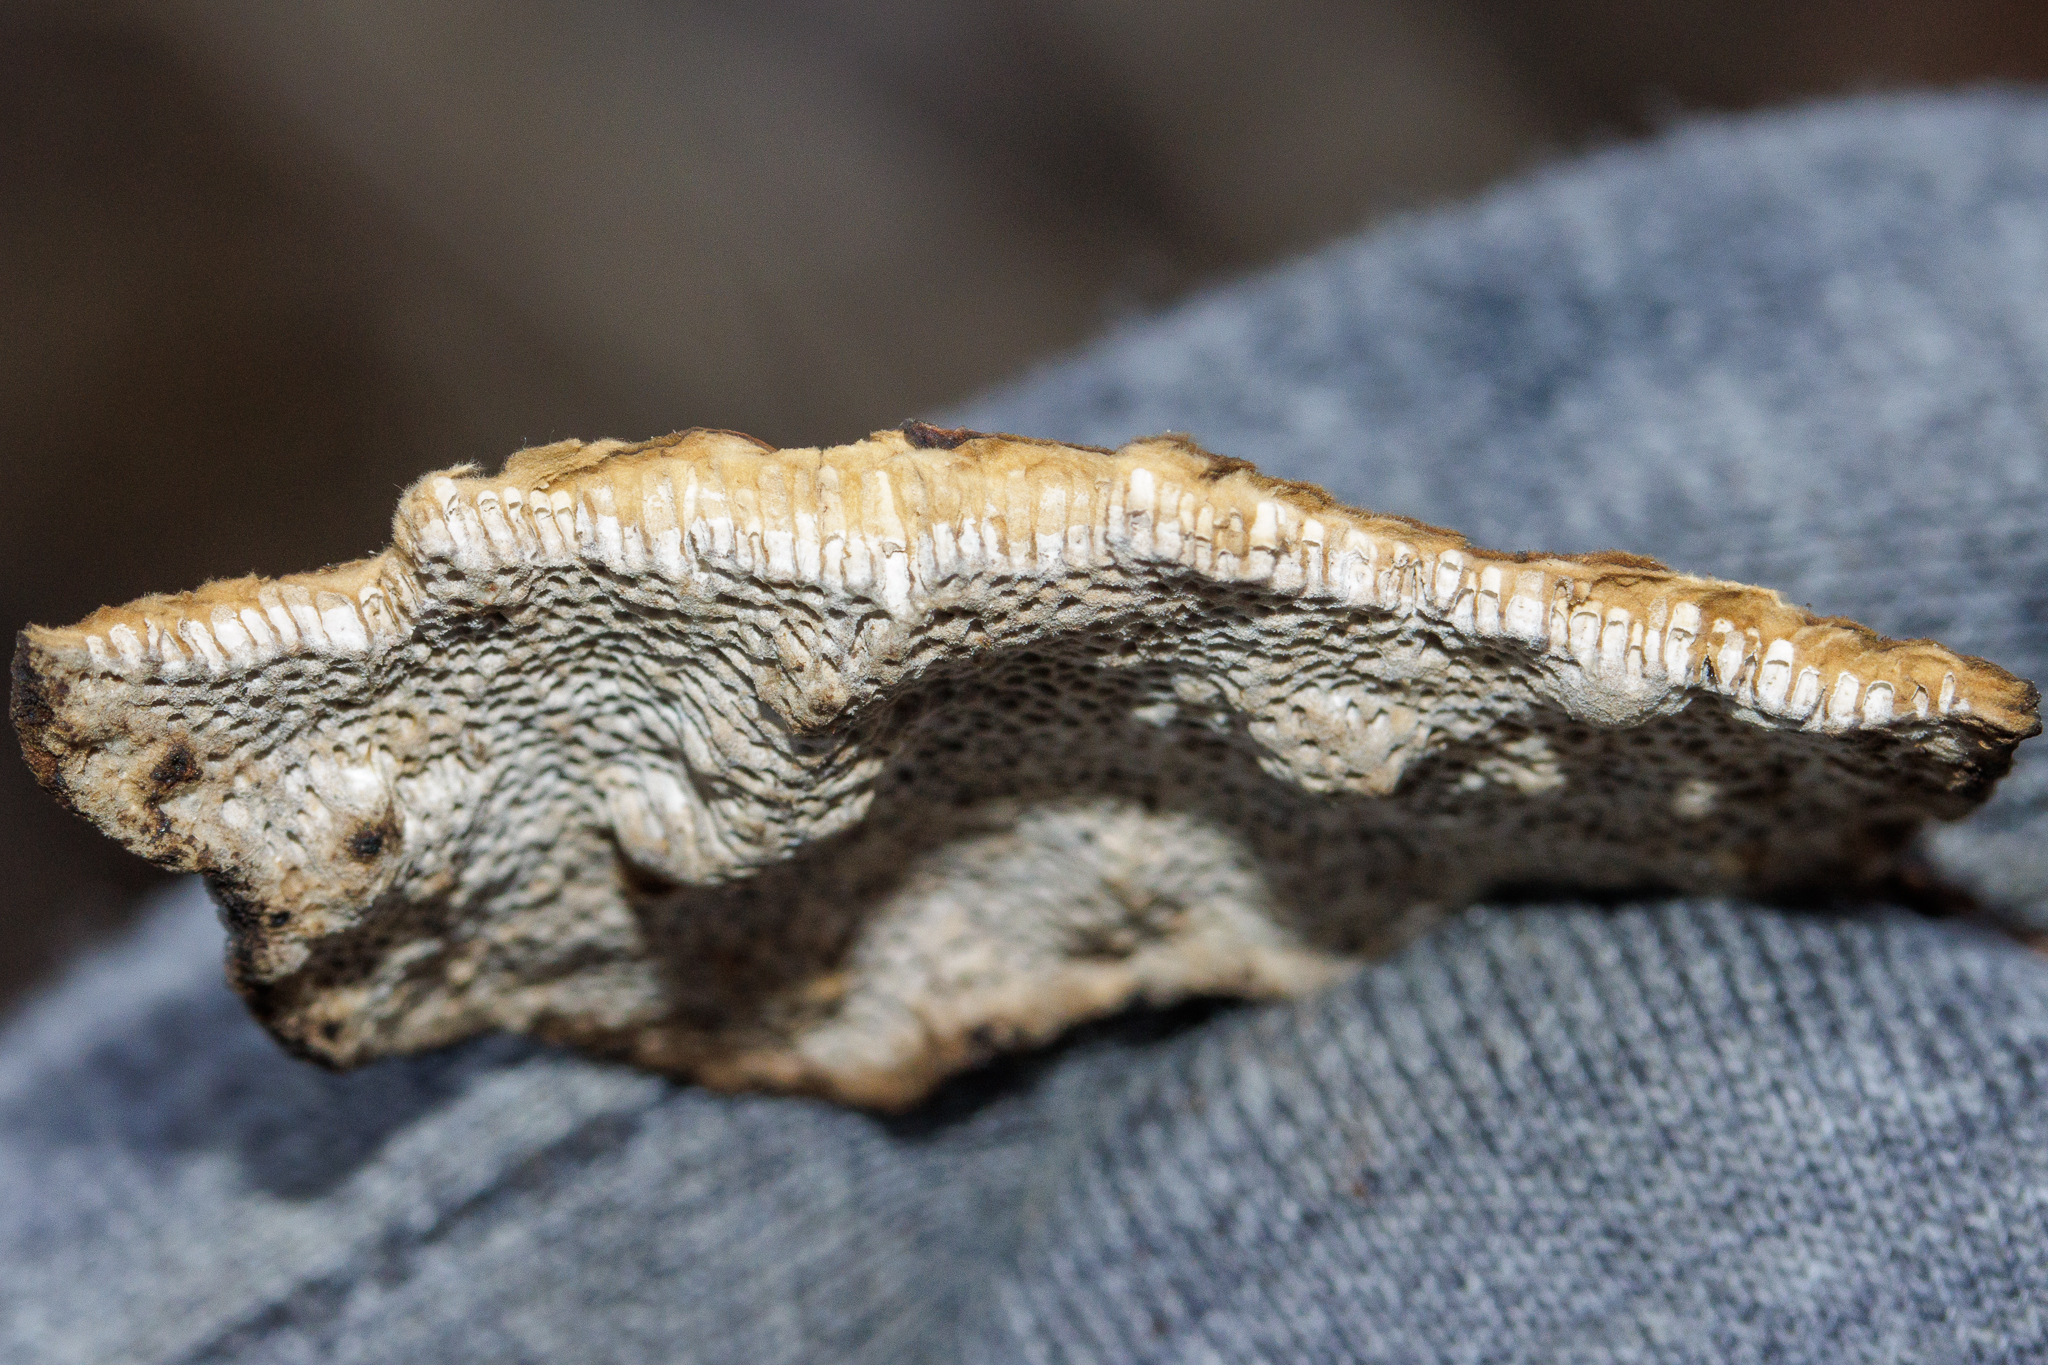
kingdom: Fungi
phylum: Basidiomycota
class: Agaricomycetes
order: Polyporales
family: Polyporaceae
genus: Podofomes
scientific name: Podofomes mollis
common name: Blød begporesvamp
